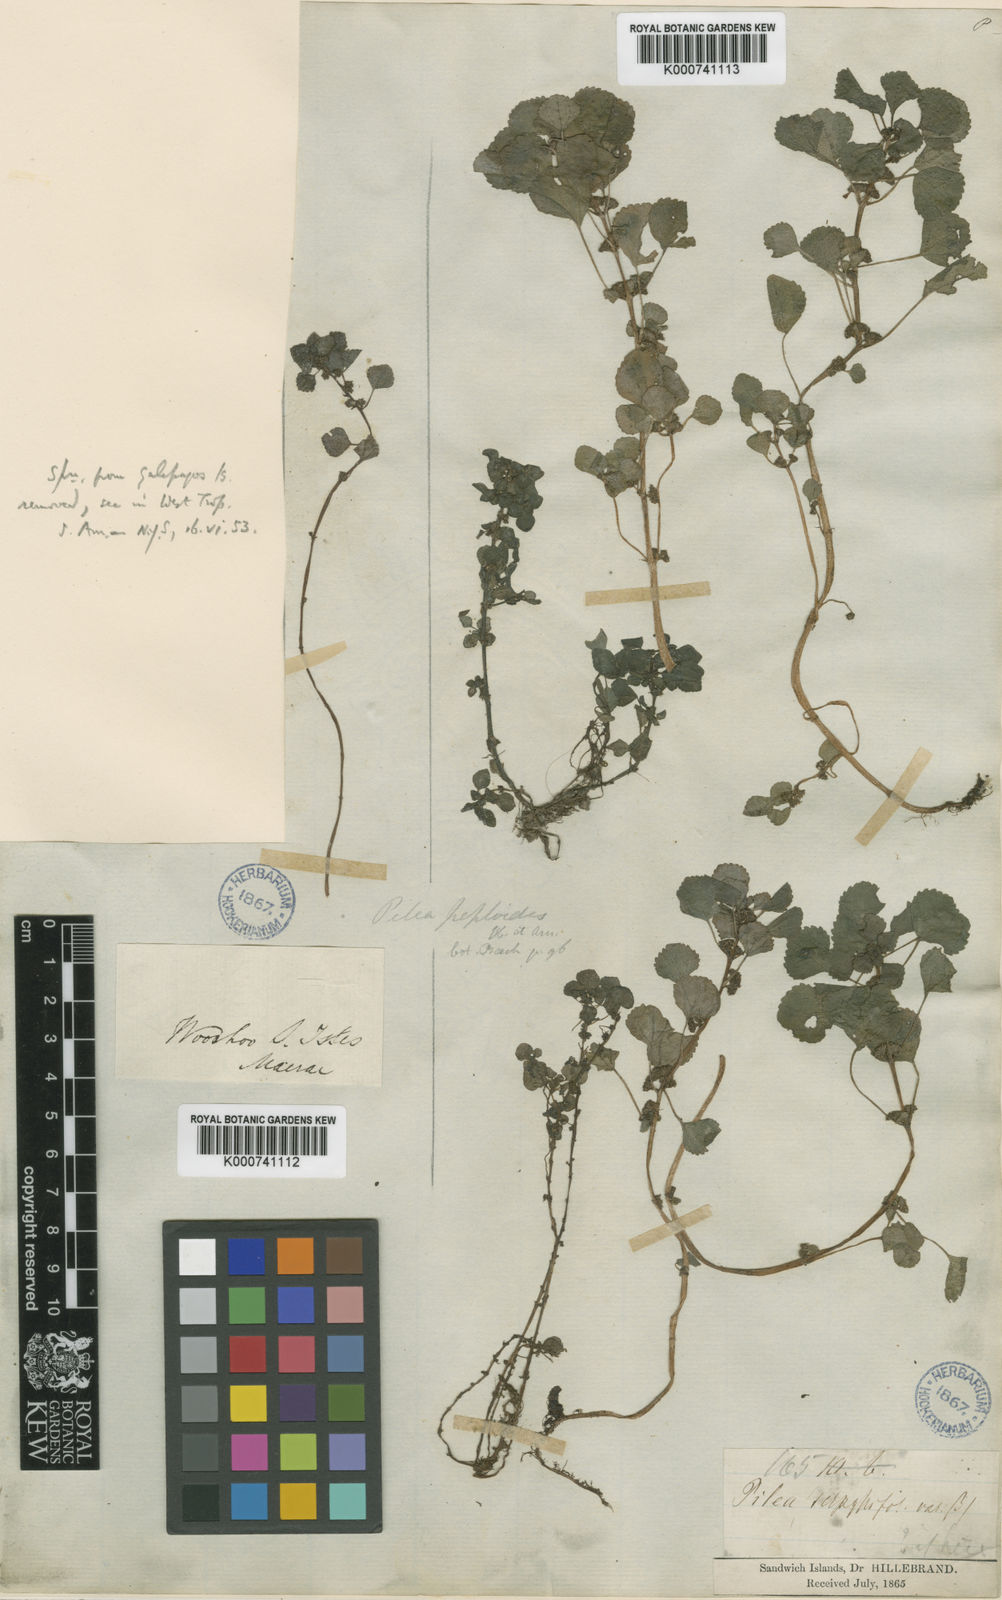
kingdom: Plantae
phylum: Tracheophyta
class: Magnoliopsida
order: Rosales
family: Urticaceae
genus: Pilea
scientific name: Pilea peploides
